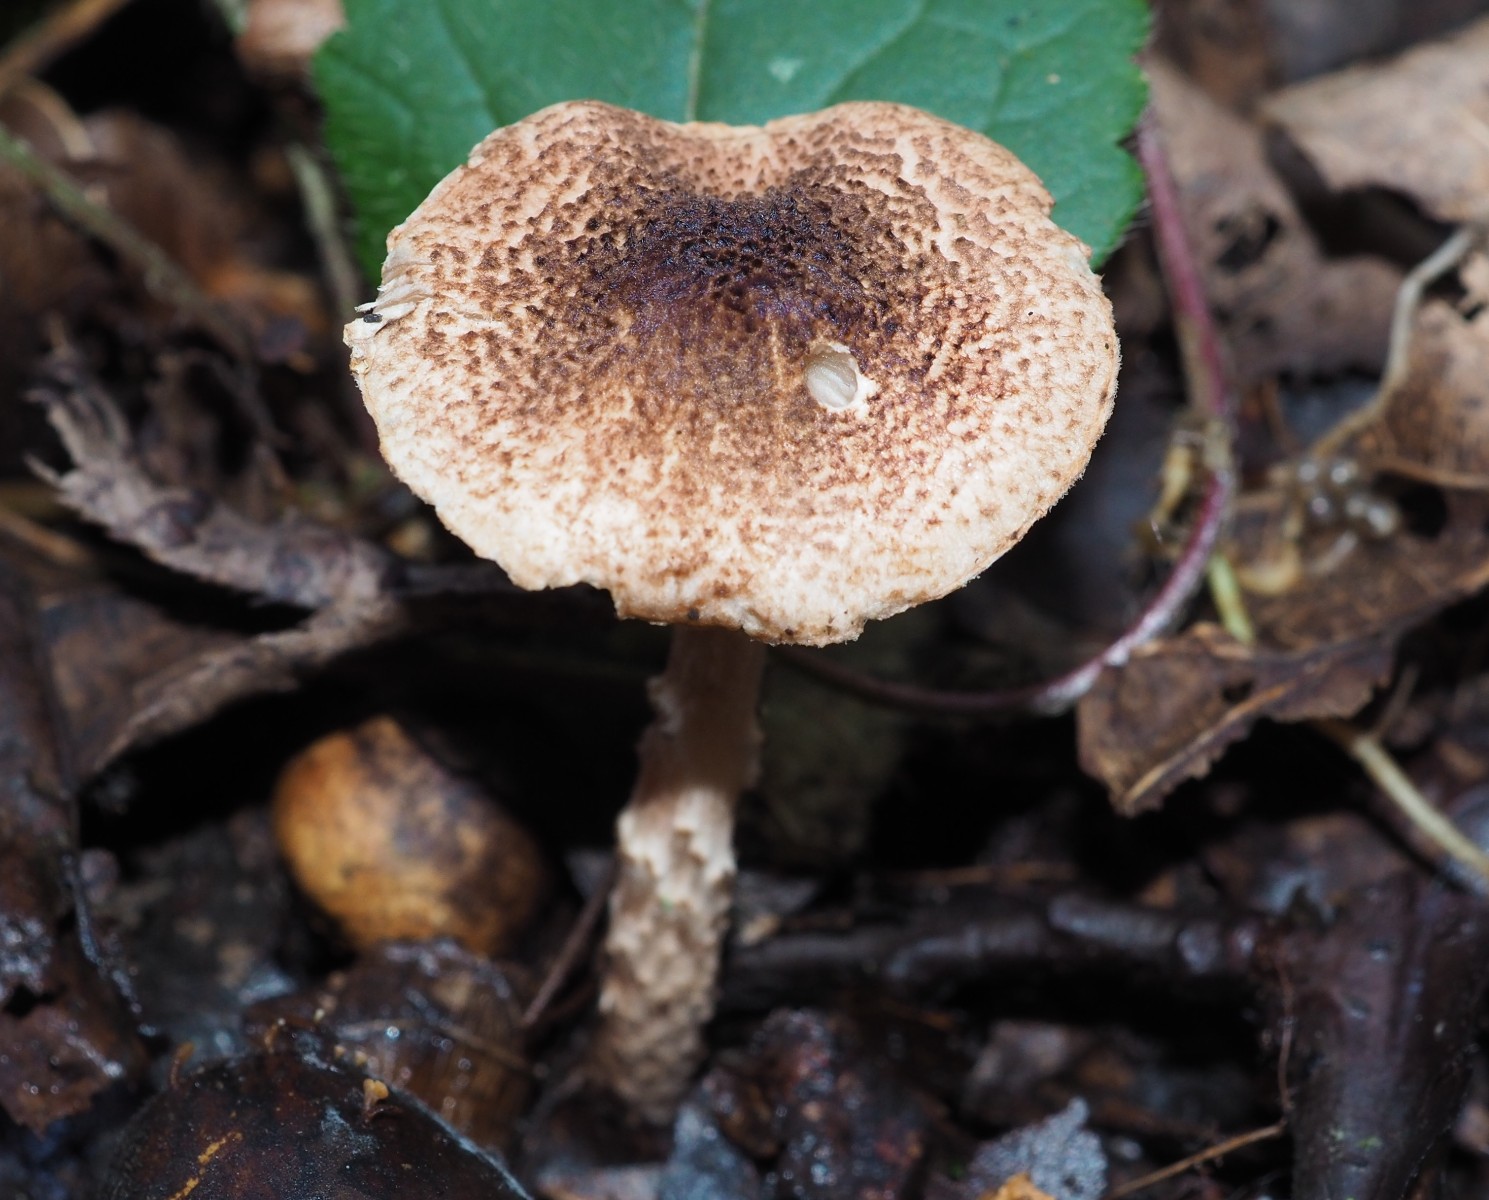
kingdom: Fungi
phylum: Basidiomycota
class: Agaricomycetes
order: Agaricales
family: Agaricaceae
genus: Lepiota
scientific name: Lepiota tomentella
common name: filtet parasolhat
